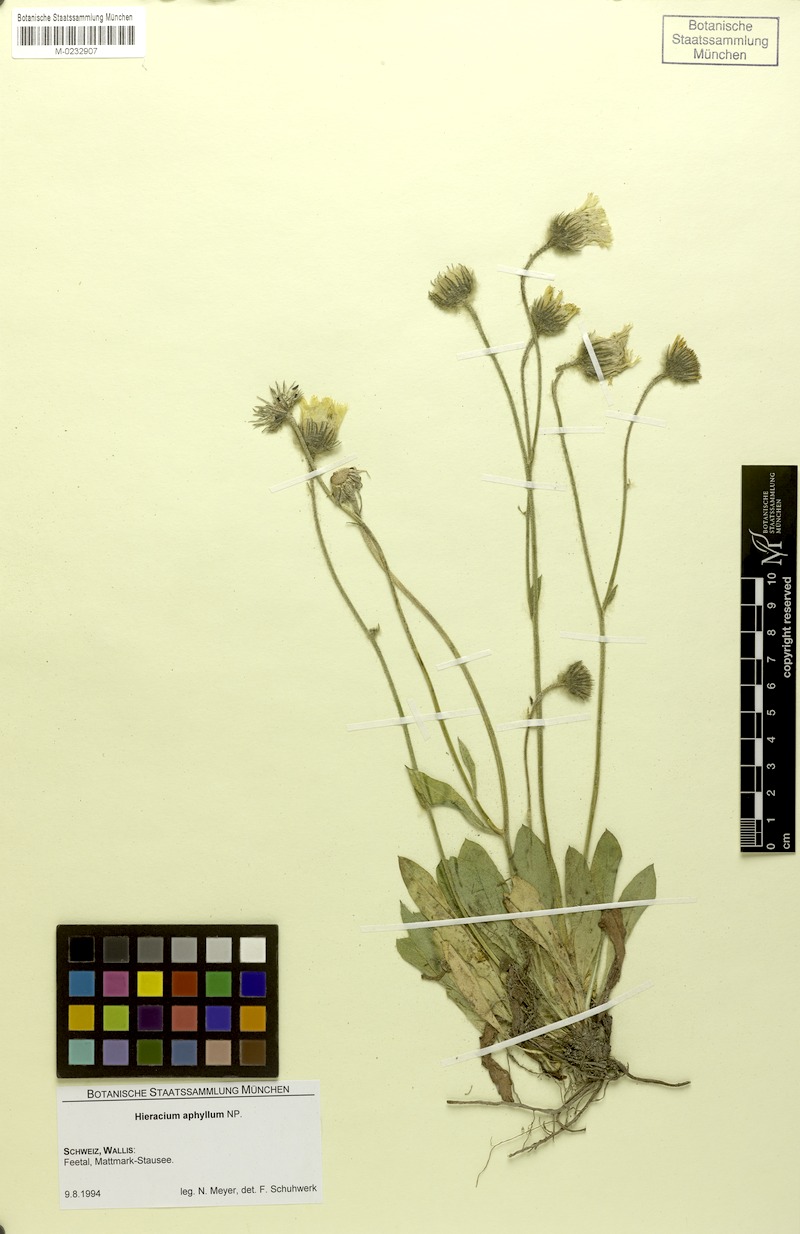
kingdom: Plantae
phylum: Tracheophyta
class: Magnoliopsida
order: Asterales
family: Asteraceae
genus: Hieracium
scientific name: Hieracium aphyllum
